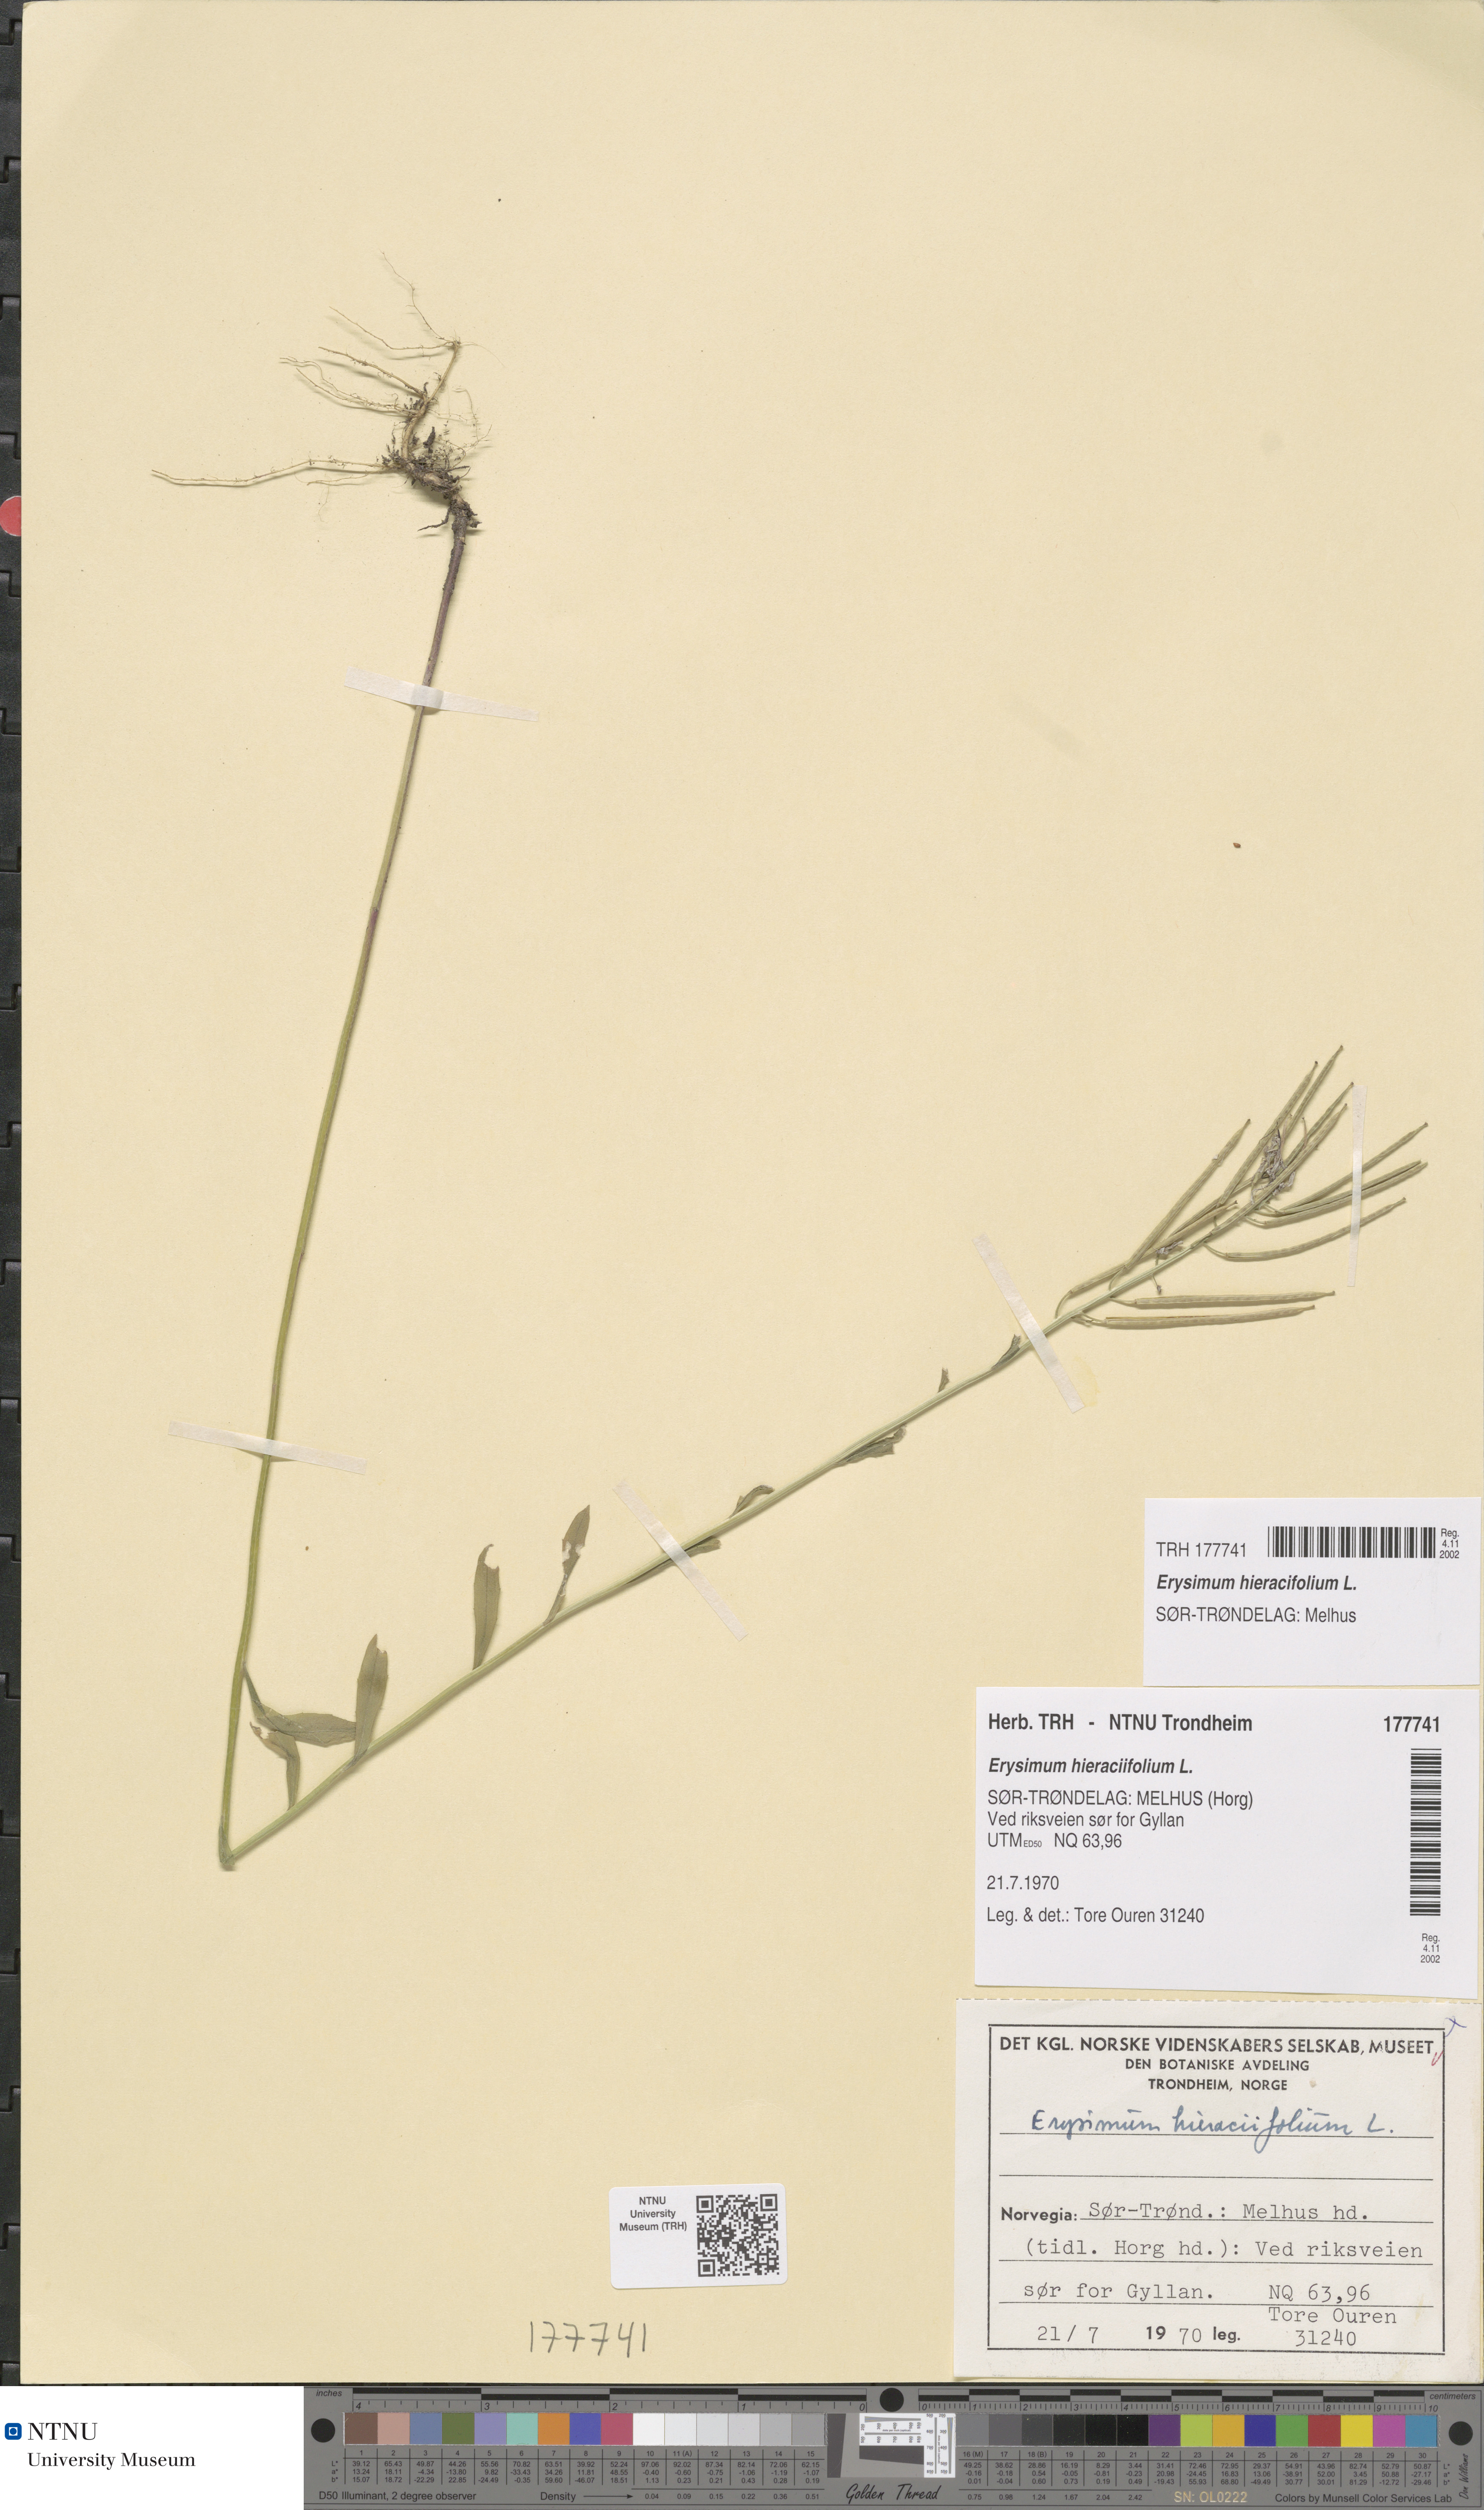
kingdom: Plantae
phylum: Tracheophyta
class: Magnoliopsida
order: Brassicales
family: Brassicaceae
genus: Erysimum
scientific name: Erysimum virgatum
